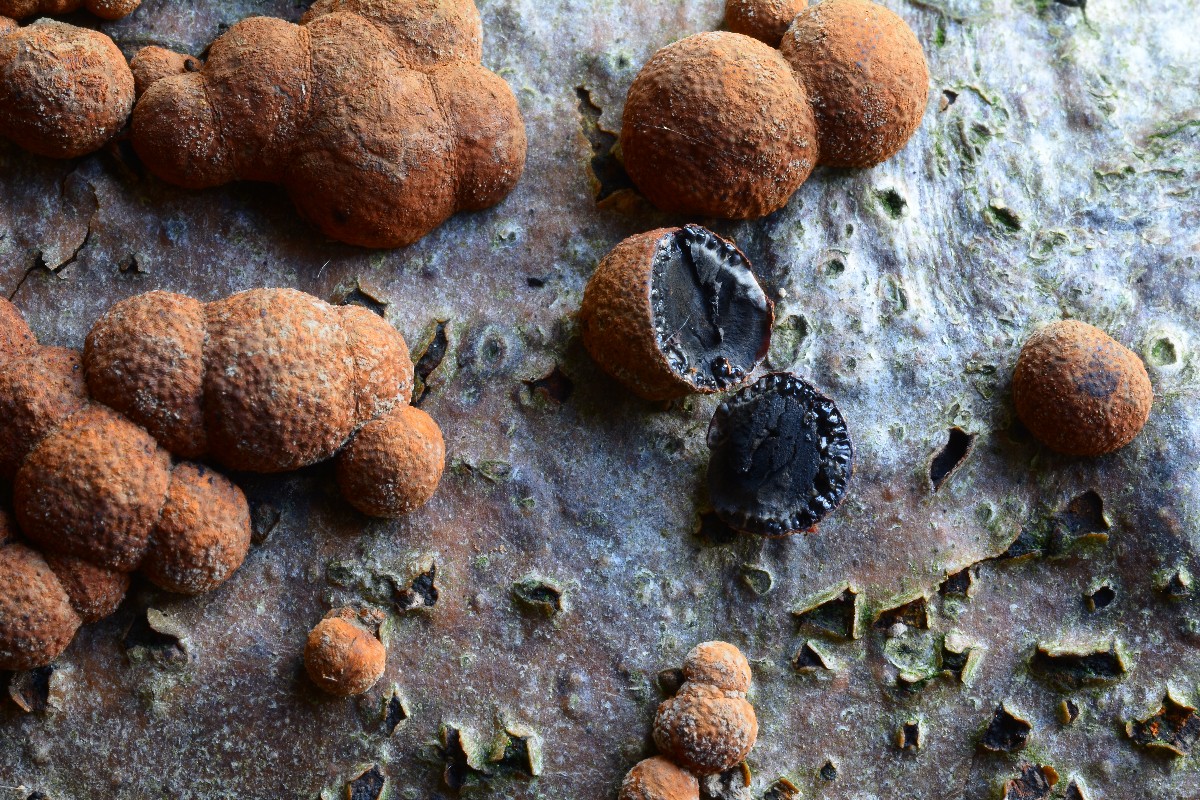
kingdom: Fungi
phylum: Ascomycota
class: Sordariomycetes
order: Xylariales
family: Hypoxylaceae
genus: Hypoxylon
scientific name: Hypoxylon fragiforme
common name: kuljordbær
